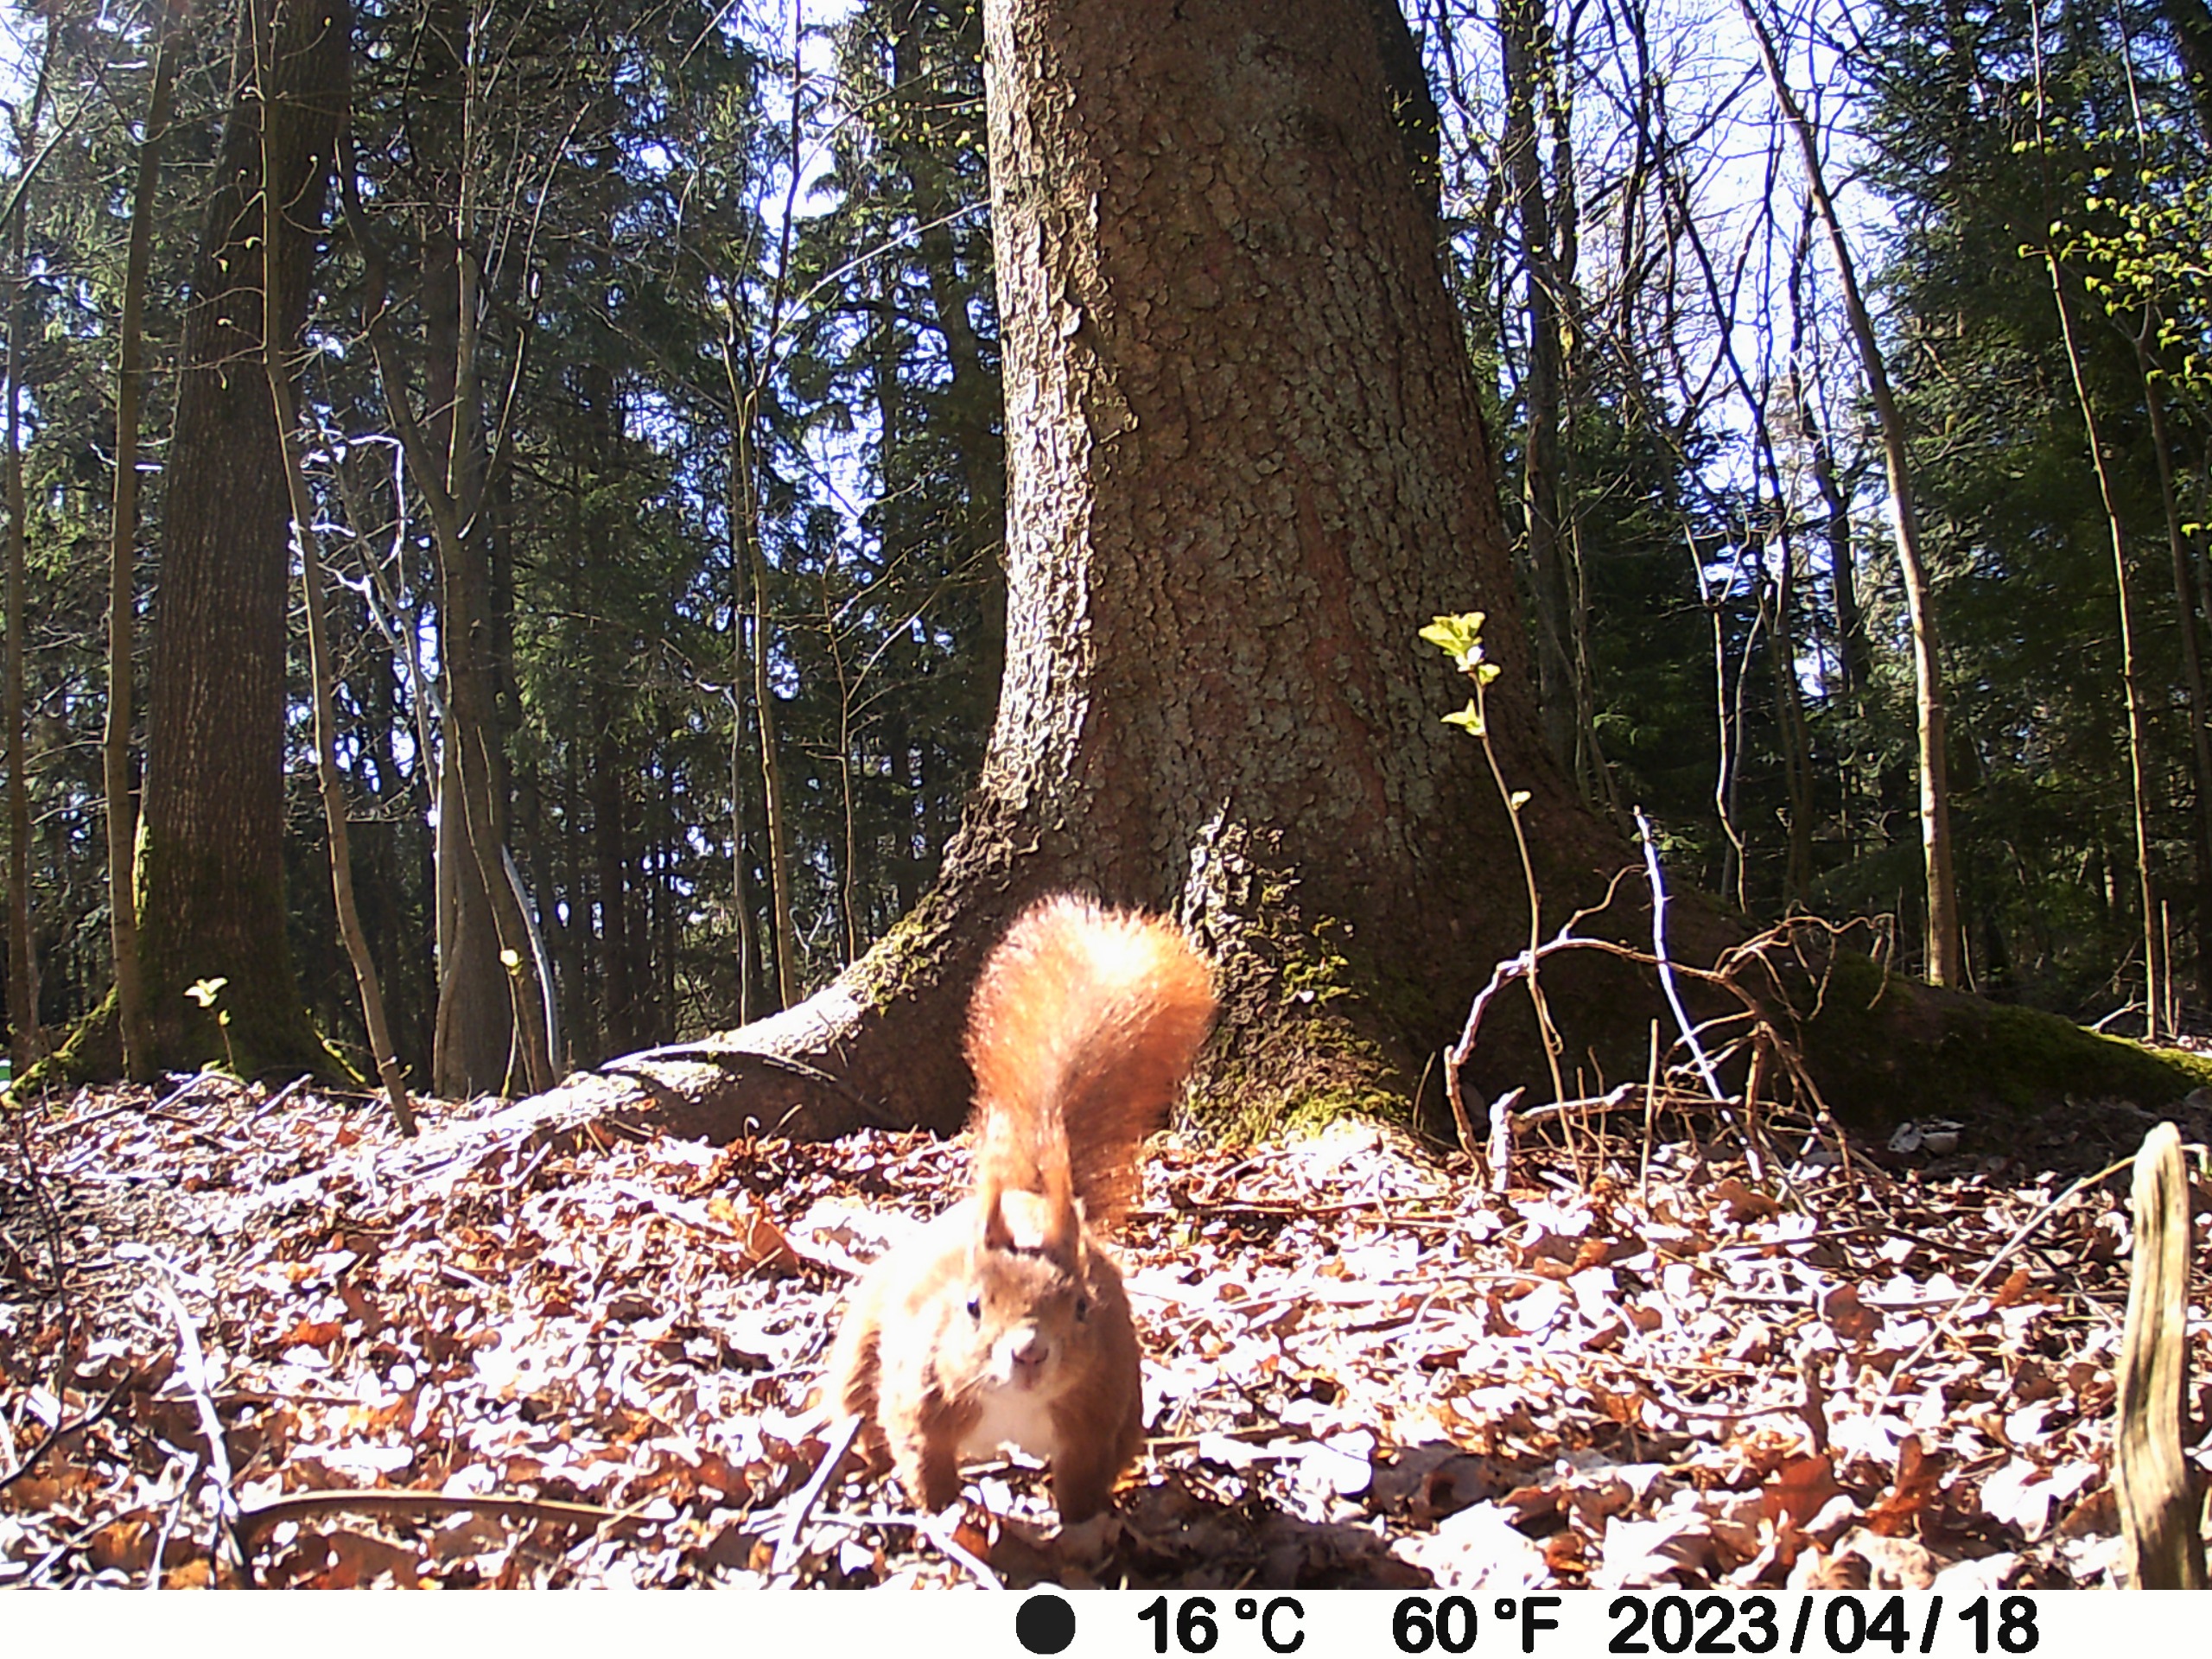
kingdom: Animalia
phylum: Chordata
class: Mammalia
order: Rodentia
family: Sciuridae
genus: Sciurus
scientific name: Sciurus vulgaris
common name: Egern
